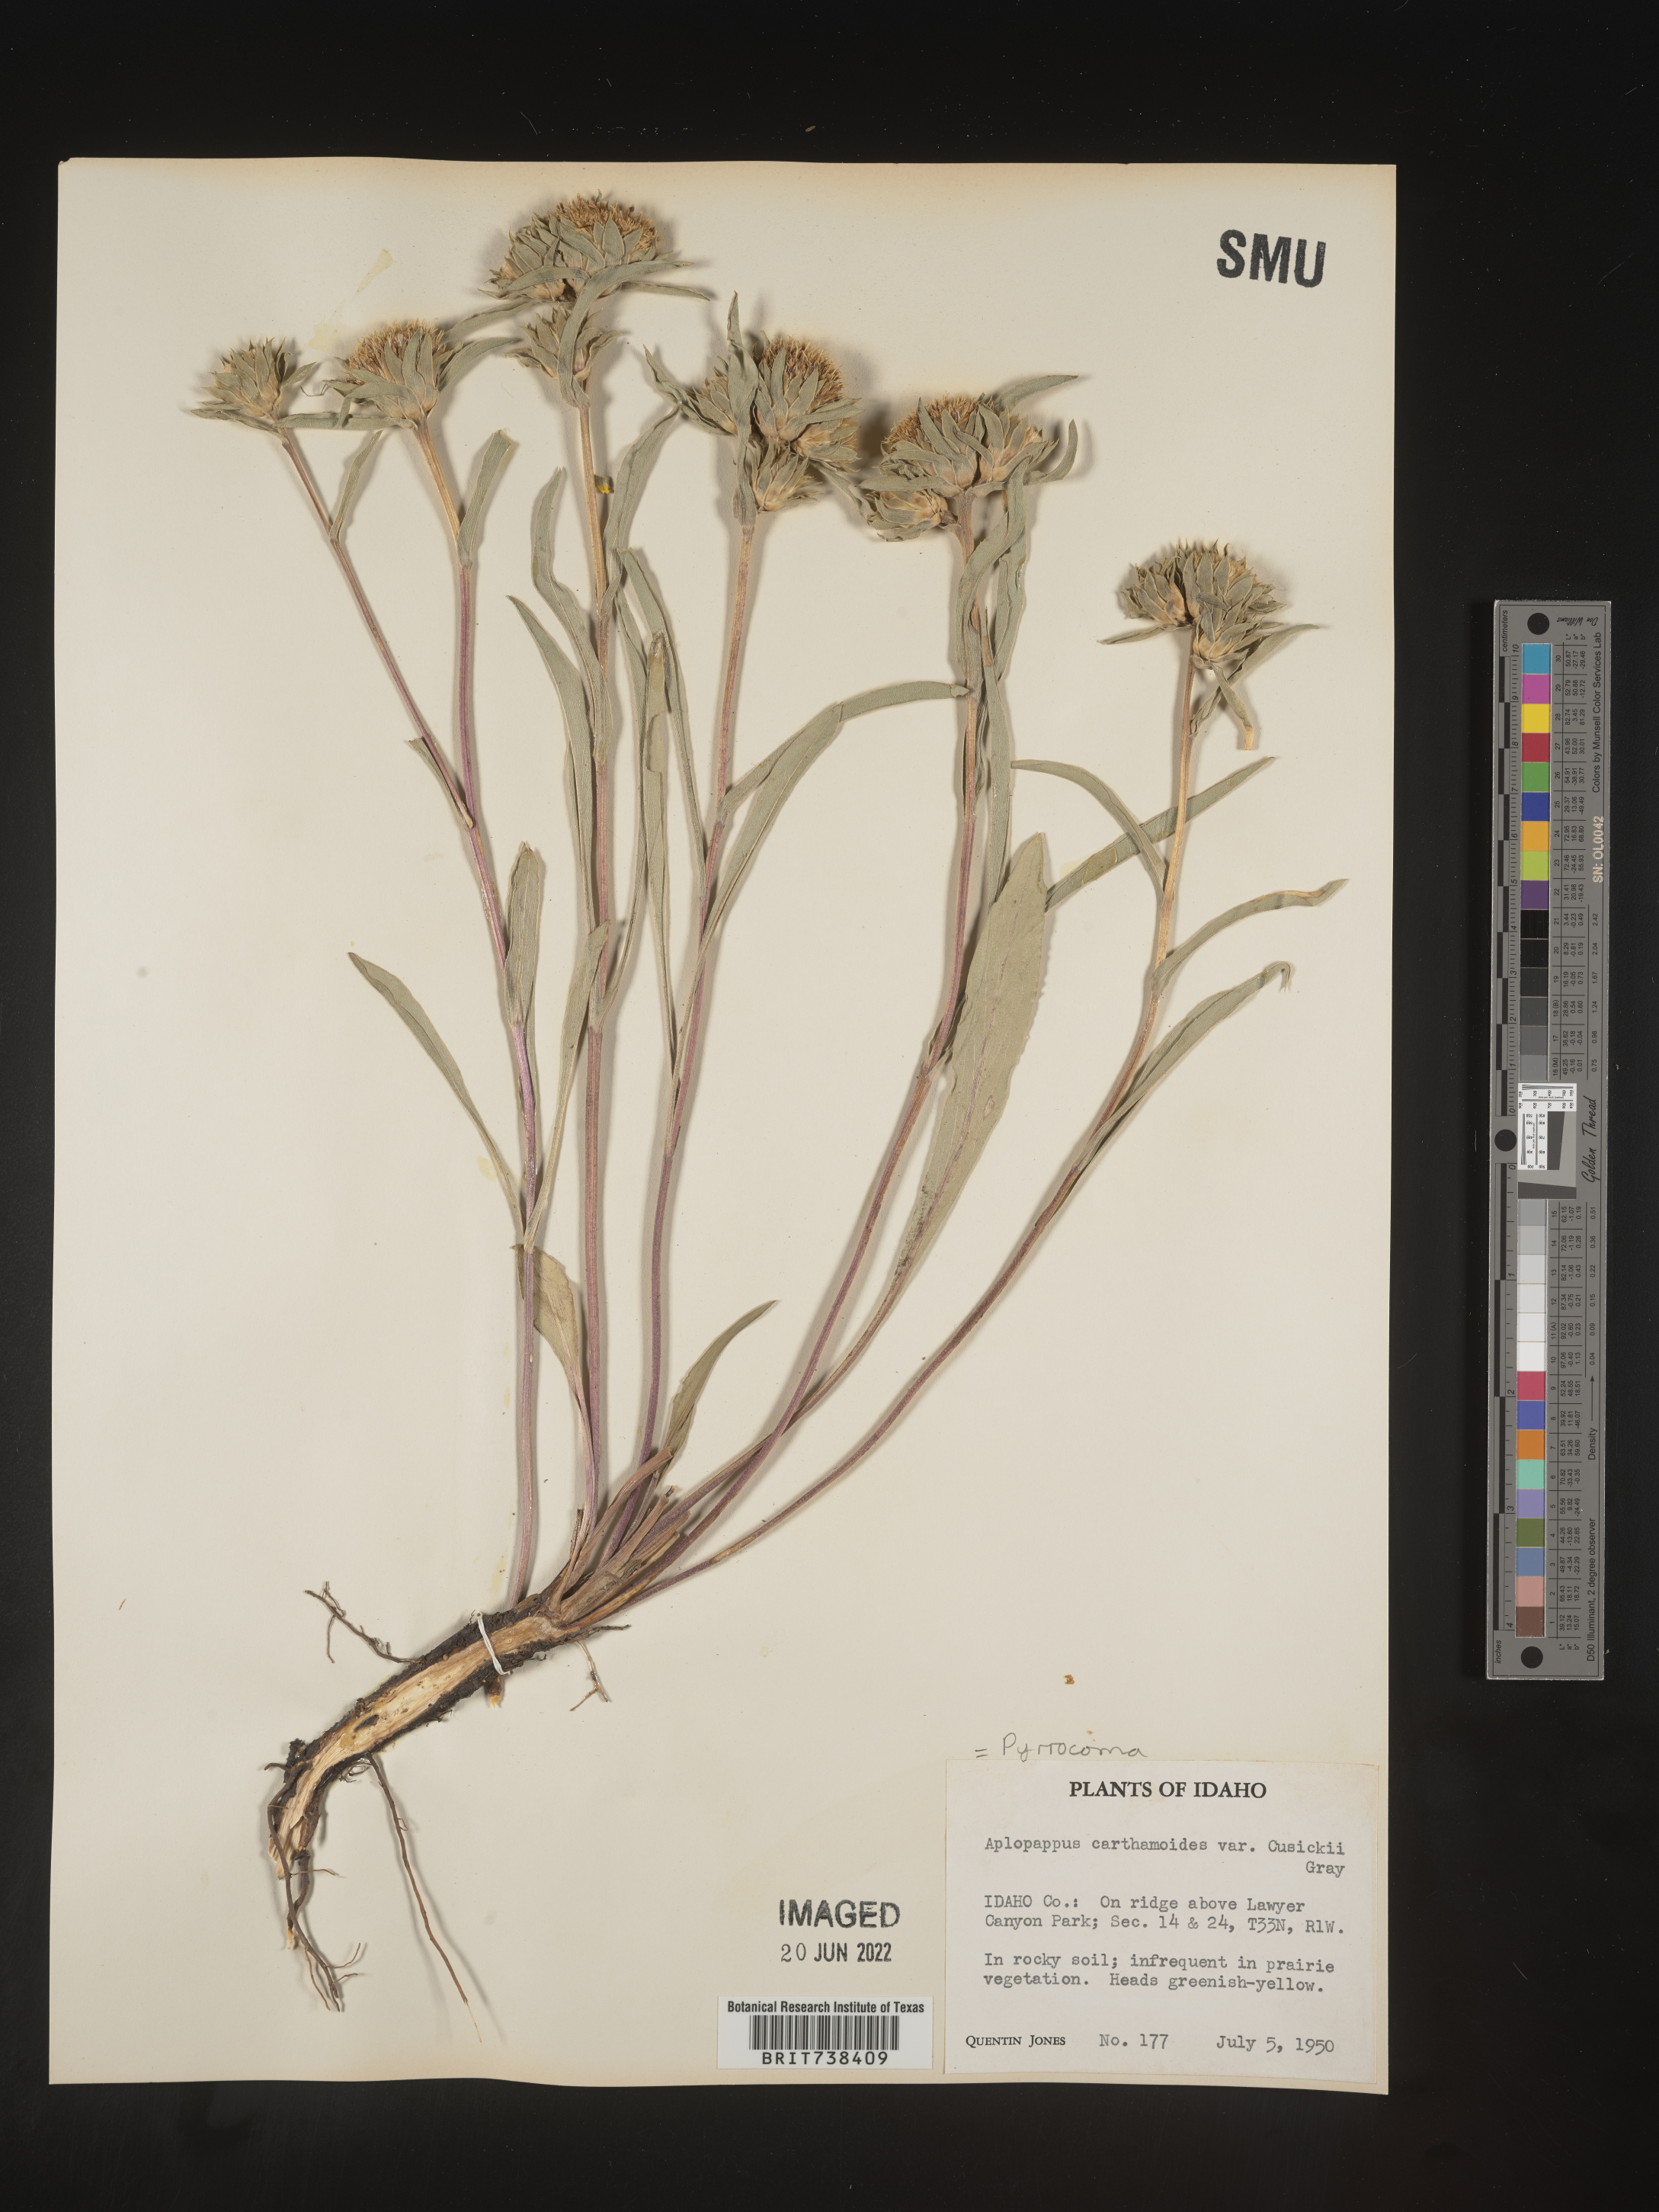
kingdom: Plantae
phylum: Tracheophyta
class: Magnoliopsida
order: Asterales
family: Asteraceae
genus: Pyrrocoma
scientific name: Pyrrocoma carthamoides
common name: Large-flower goldenweed
